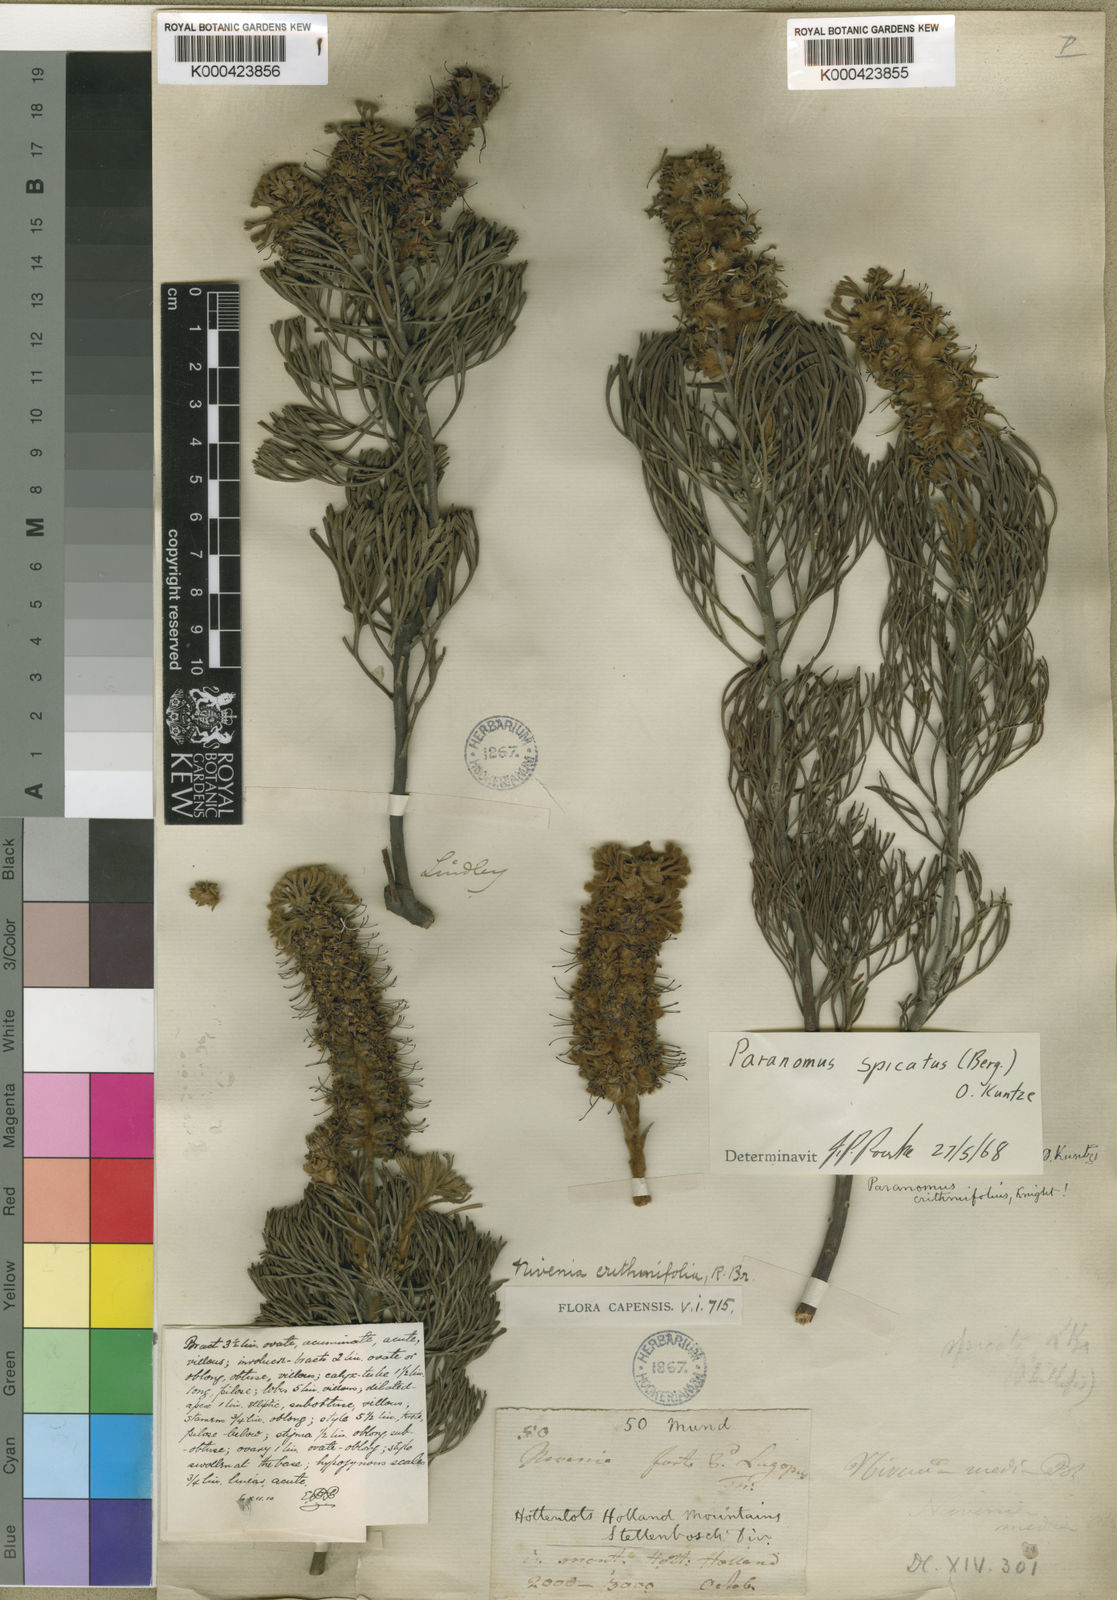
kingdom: Plantae
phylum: Tracheophyta
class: Magnoliopsida
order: Proteales
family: Proteaceae
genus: Paranomus
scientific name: Paranomus spicatus
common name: Kogelberg sceptre
